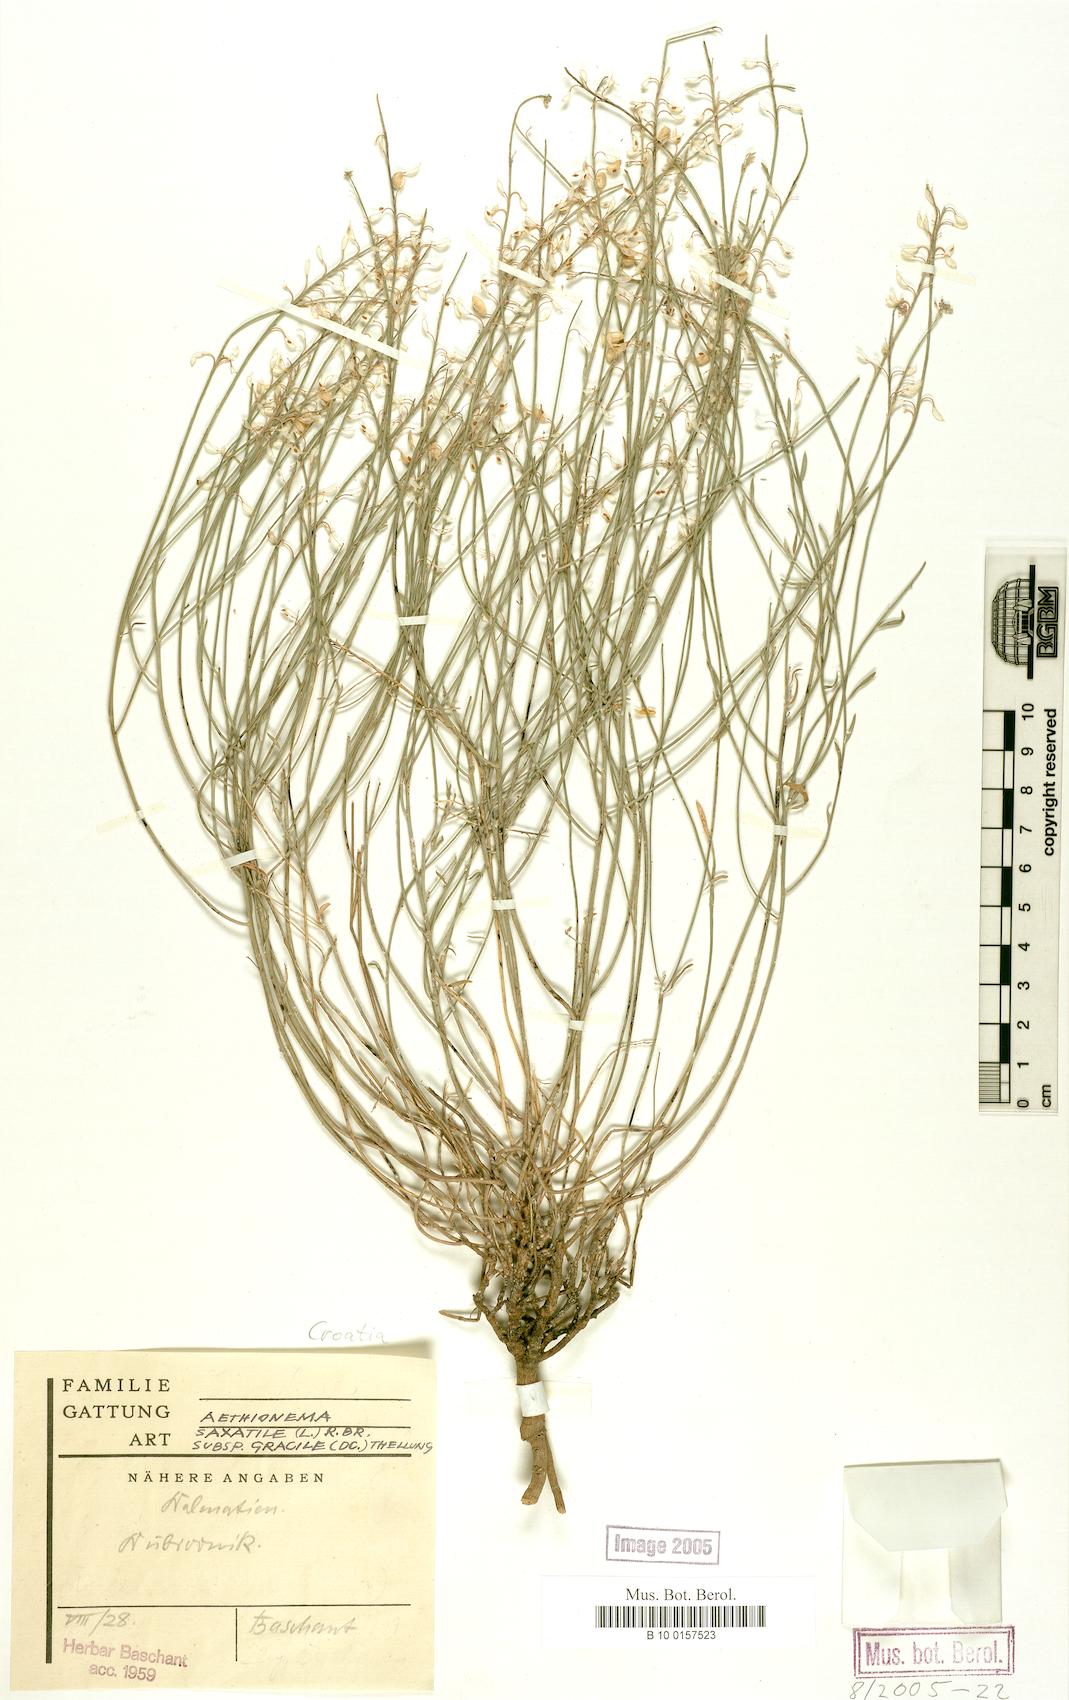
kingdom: Plantae
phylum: Tracheophyta
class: Magnoliopsida
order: Brassicales
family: Brassicaceae
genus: Aethionema
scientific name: Aethionema saxatile
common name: Burnt candytuft
